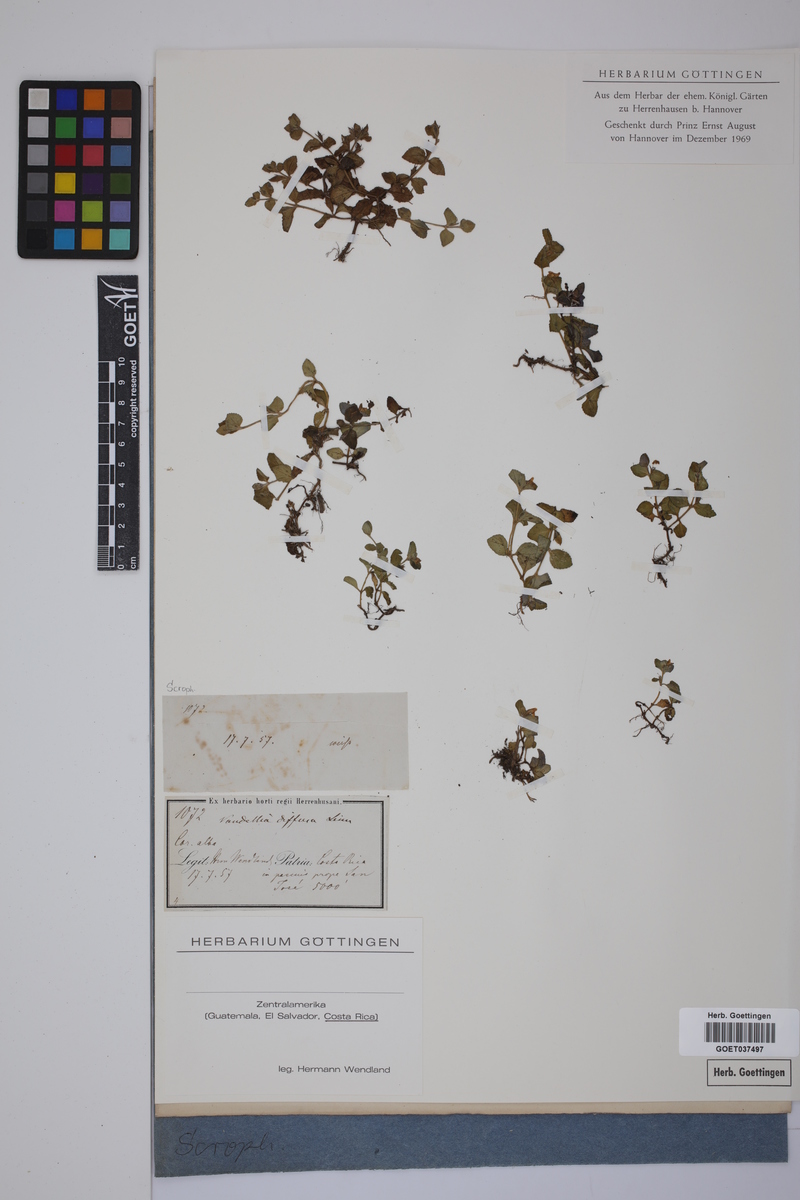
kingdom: Plantae
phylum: Tracheophyta
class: Magnoliopsida
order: Lamiales
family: Linderniaceae
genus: Vandellia
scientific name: Vandellia diffusa
